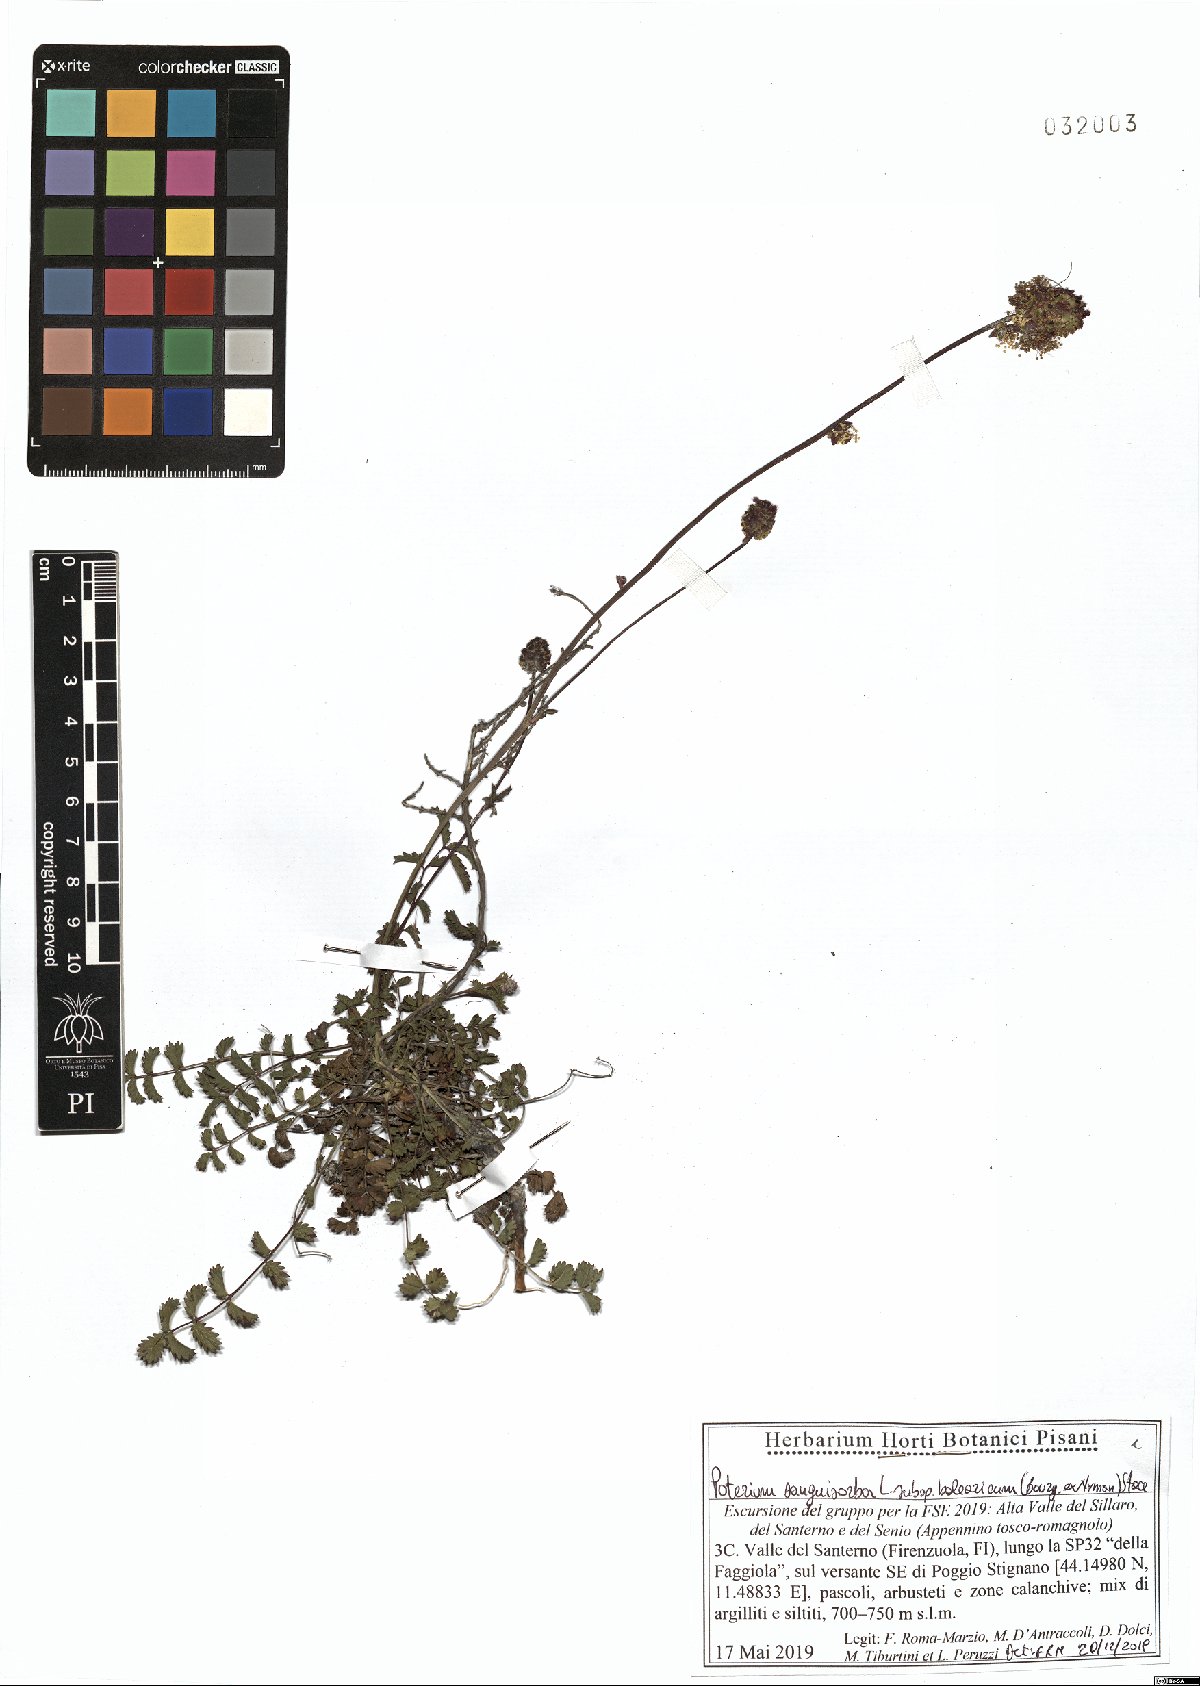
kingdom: Plantae
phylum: Tracheophyta
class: Magnoliopsida
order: Rosales
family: Rosaceae
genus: Poterium
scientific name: Poterium sanguisorba
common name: Salad burnet
